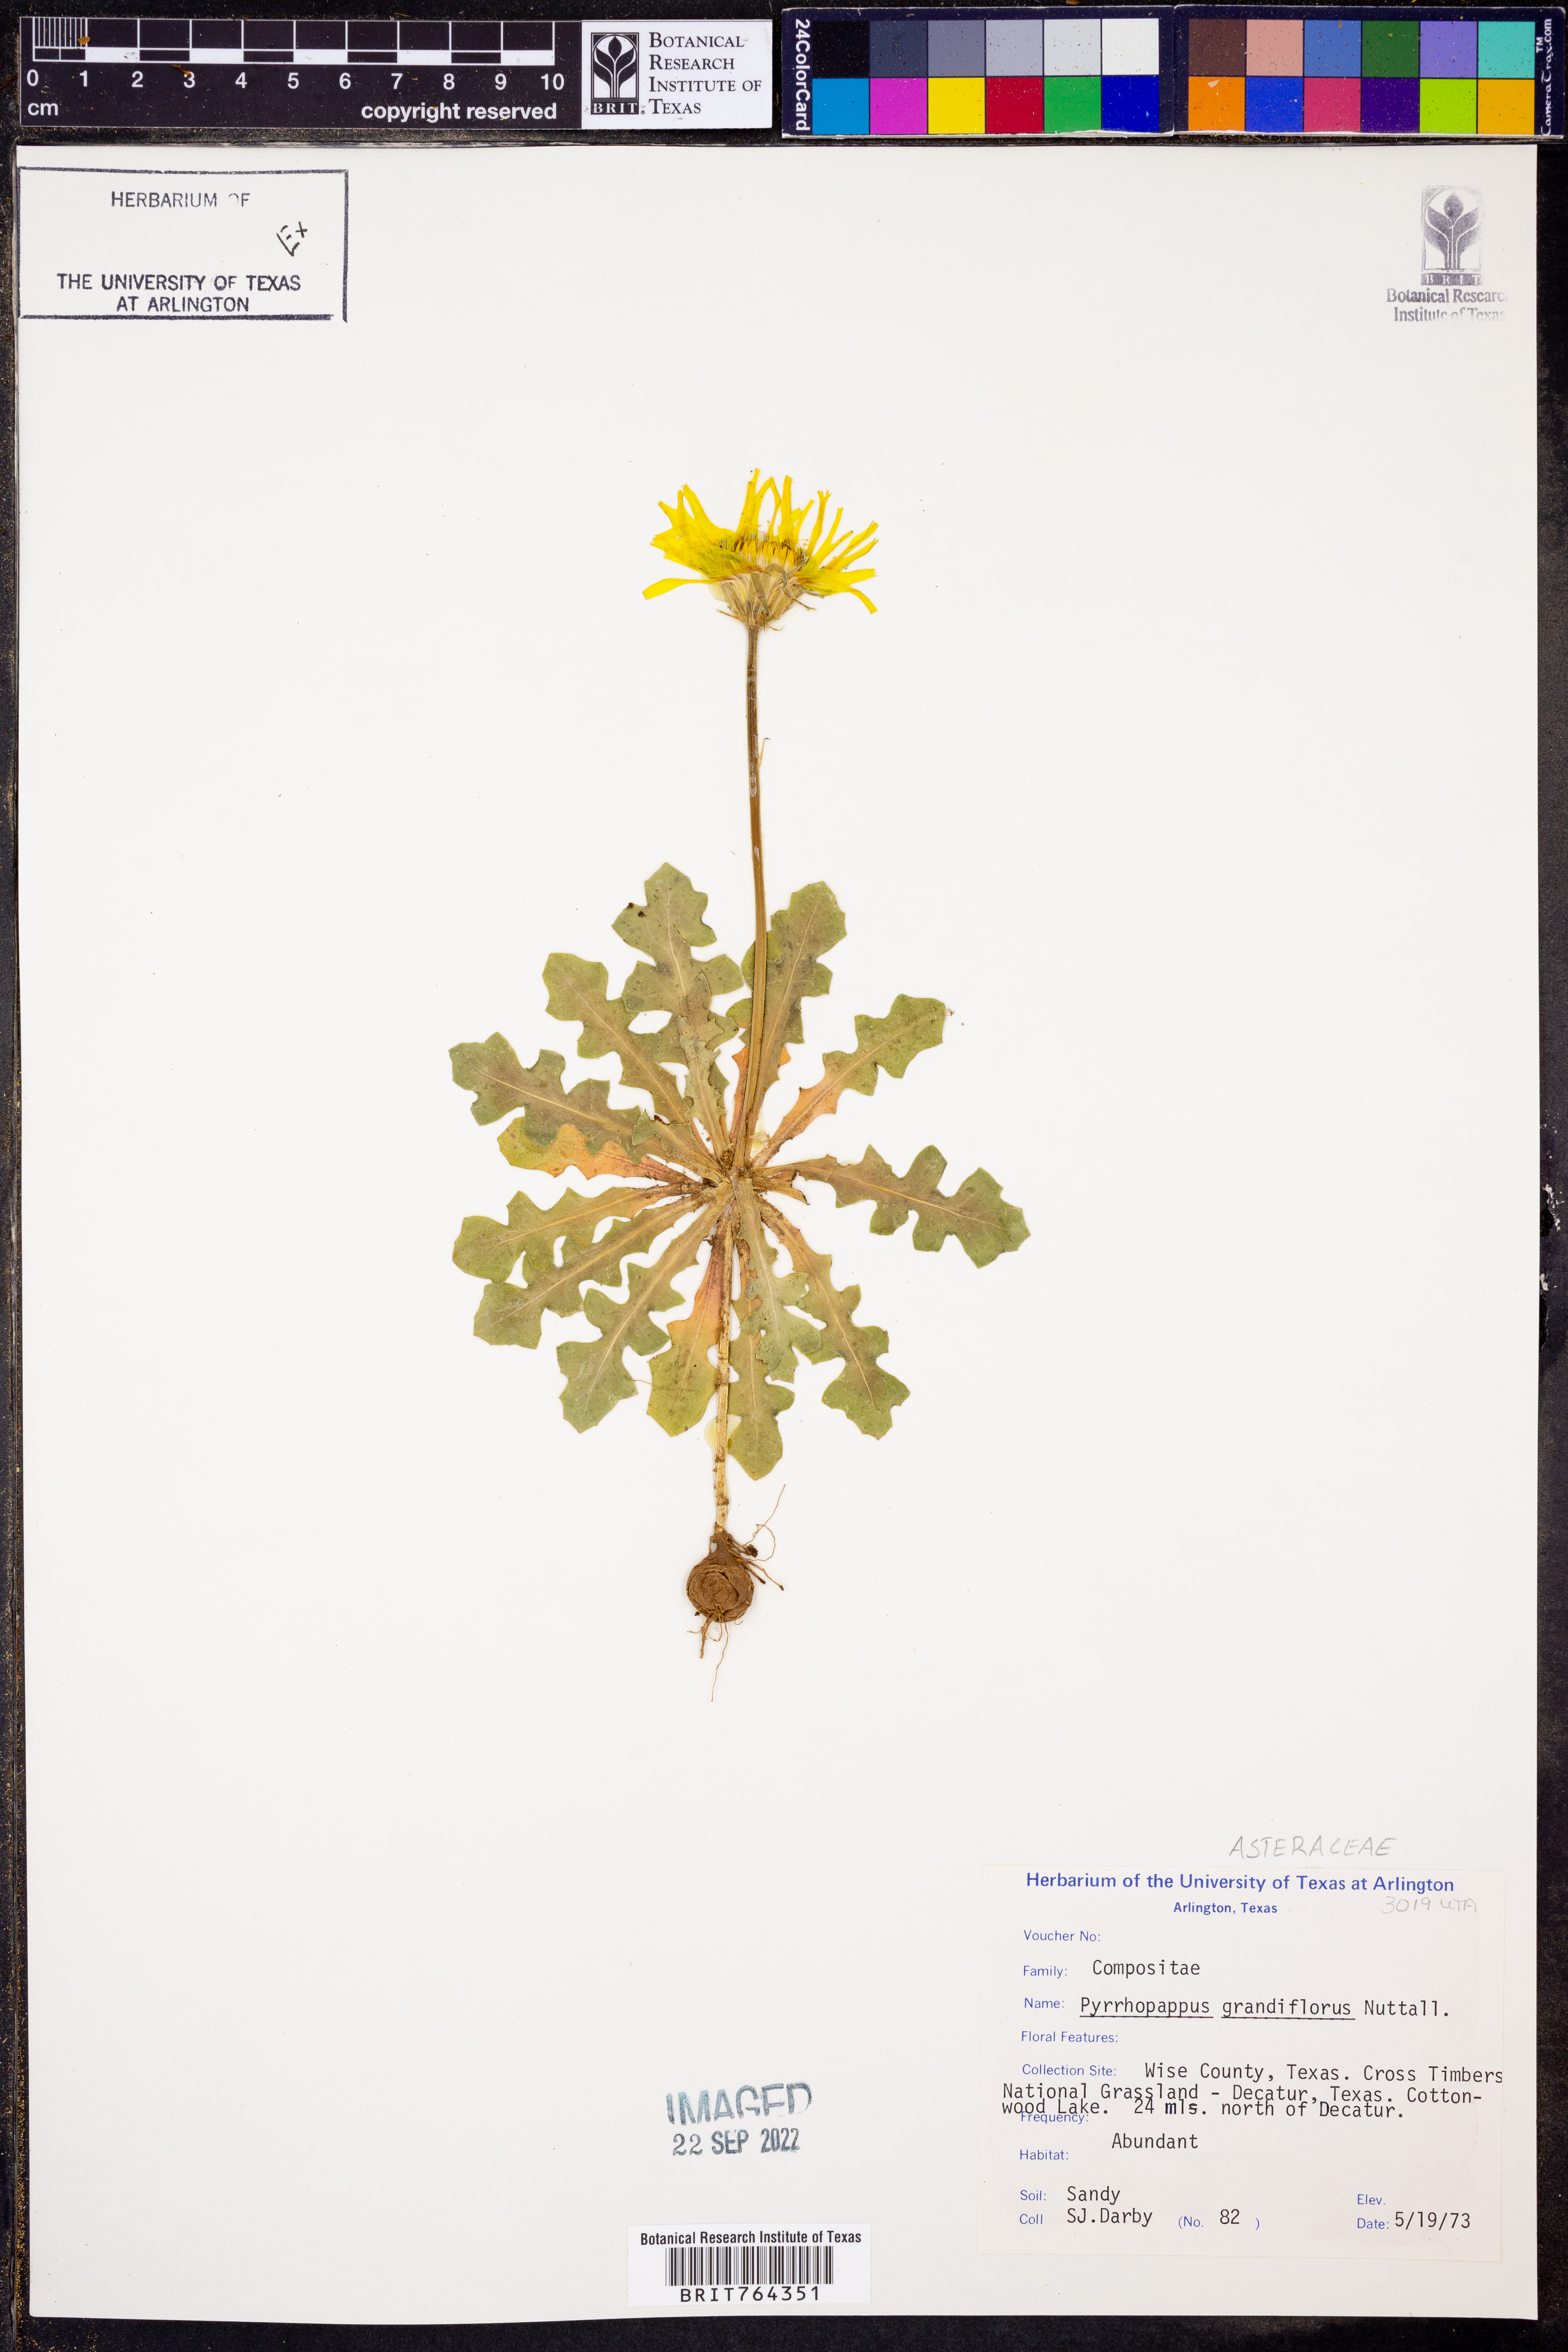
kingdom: Plantae
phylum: Tracheophyta
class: Magnoliopsida
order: Asterales
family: Asteraceae
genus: Pyrrhopappus
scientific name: Pyrrhopappus grandiflorus
